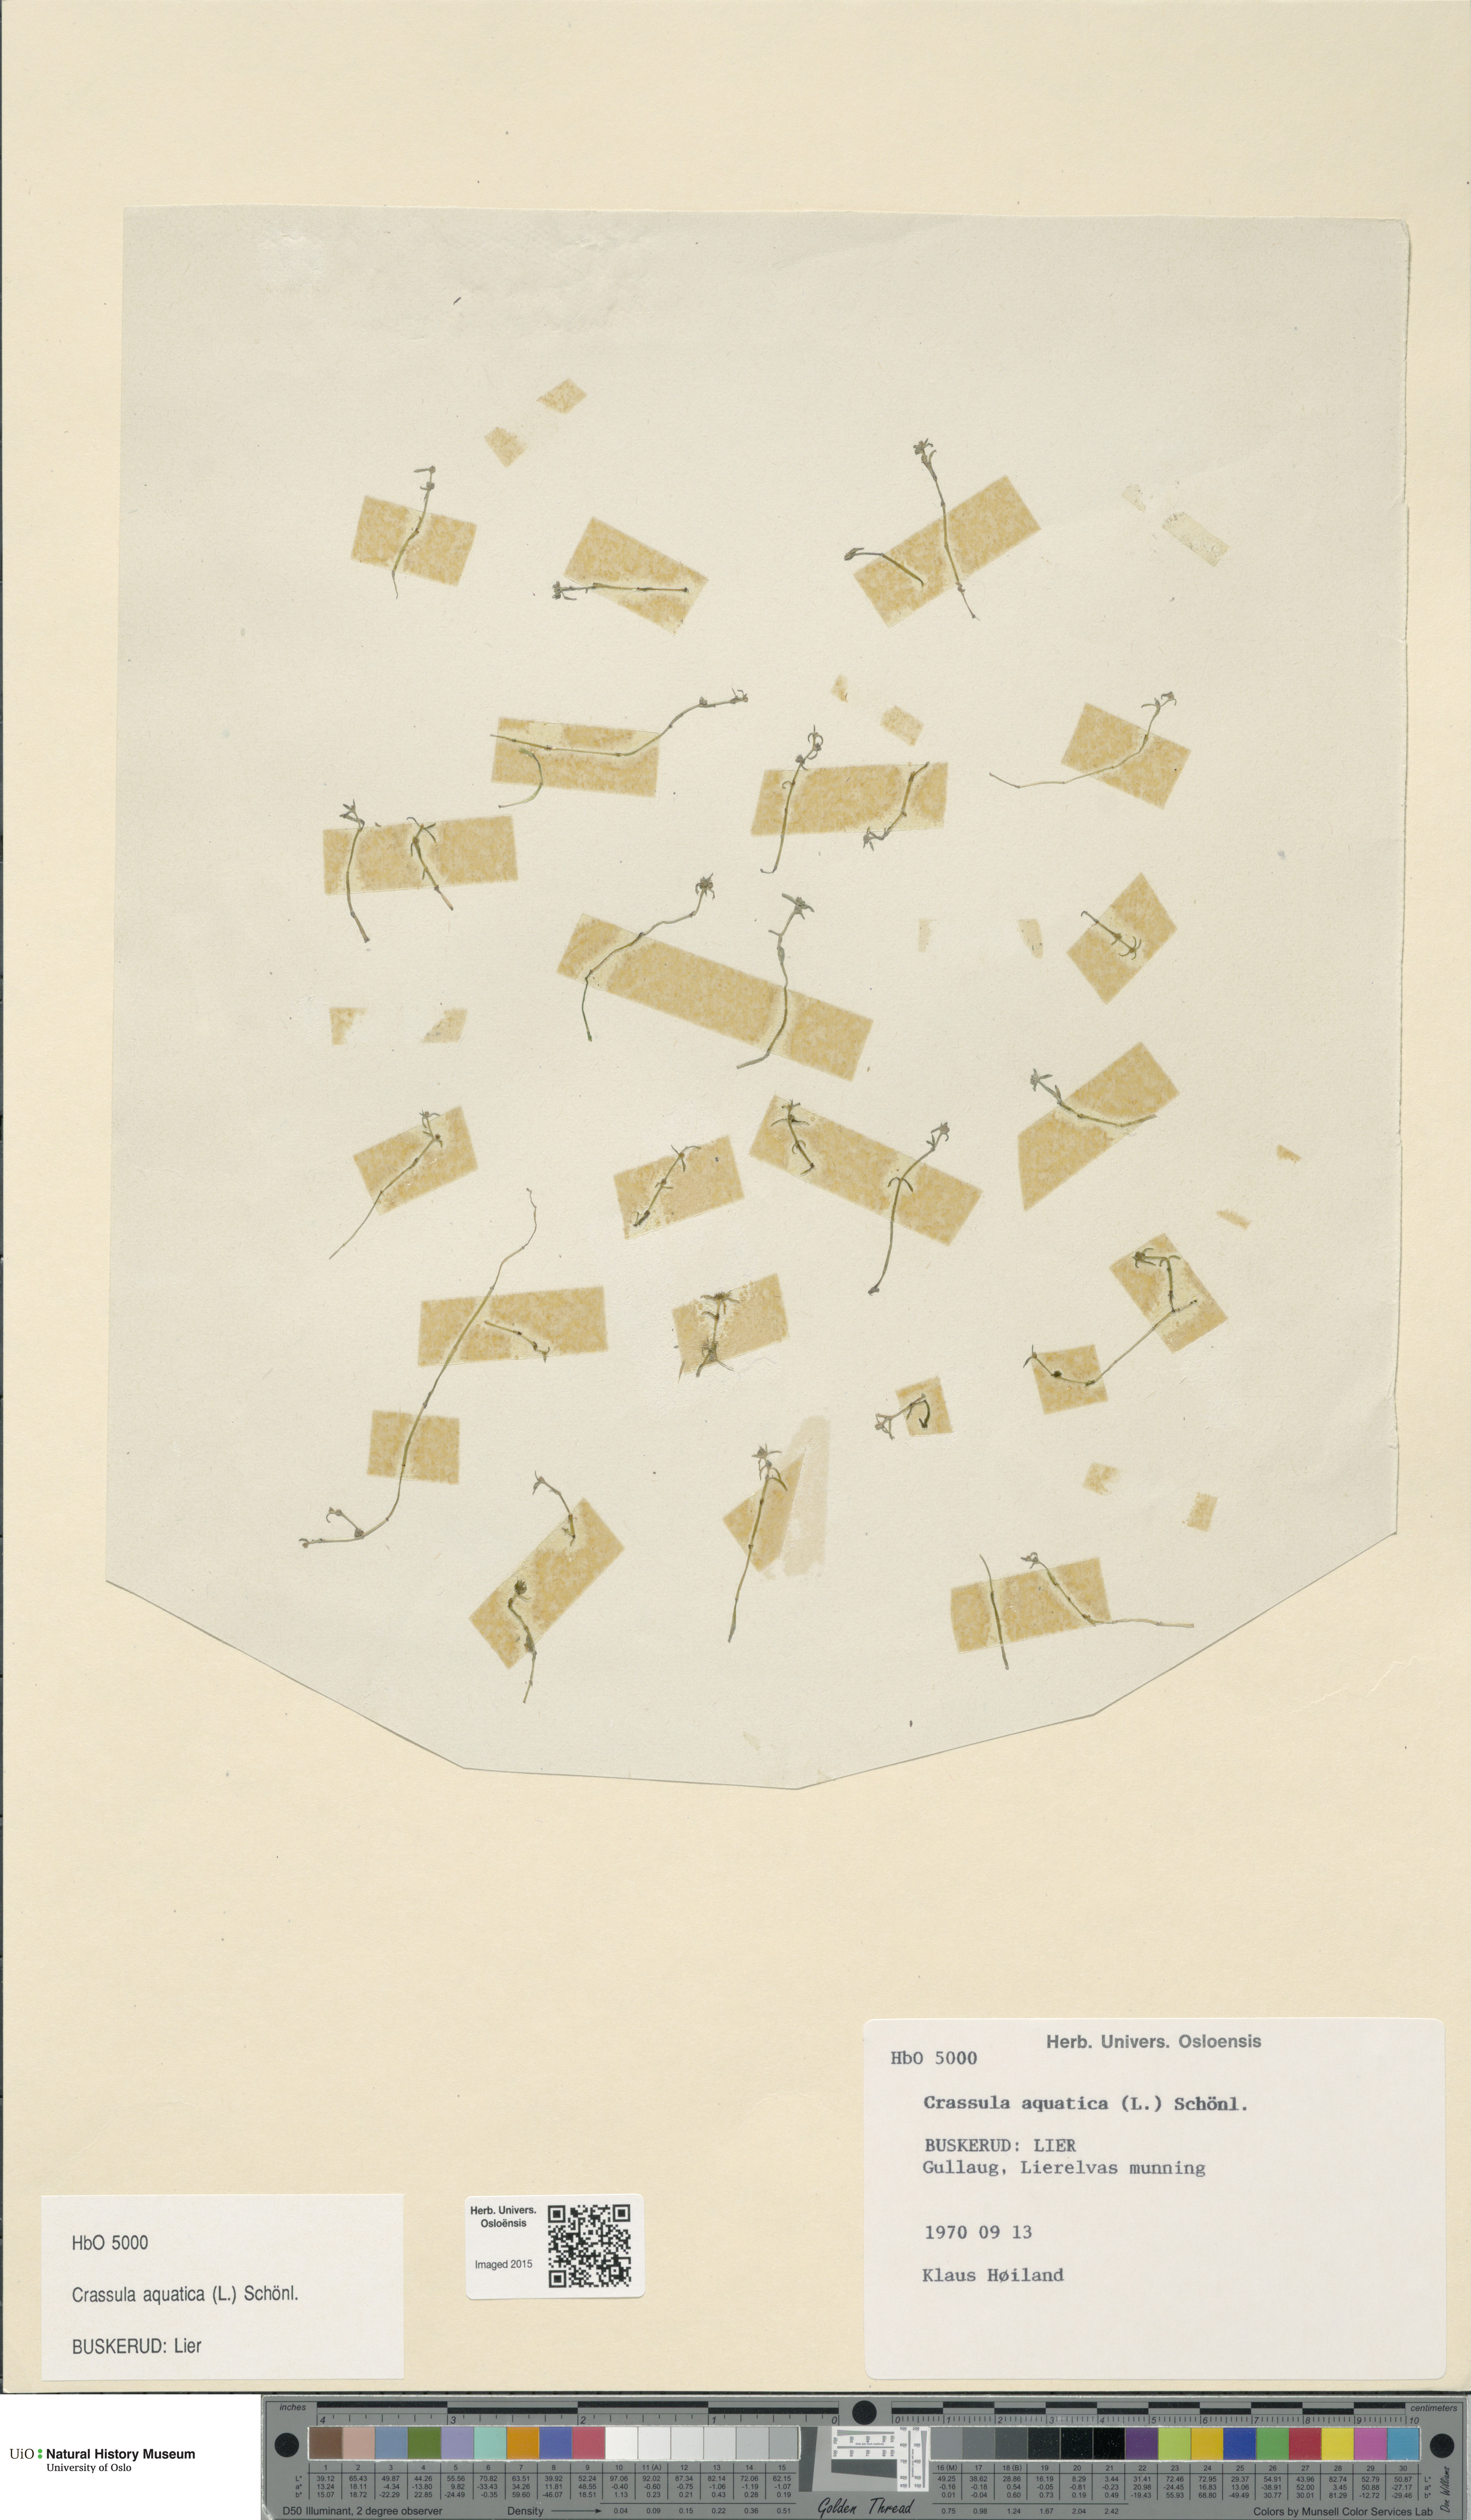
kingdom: Plantae
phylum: Tracheophyta
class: Magnoliopsida
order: Saxifragales
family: Crassulaceae
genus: Crassula
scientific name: Crassula aquatica
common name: Pigmyweed
